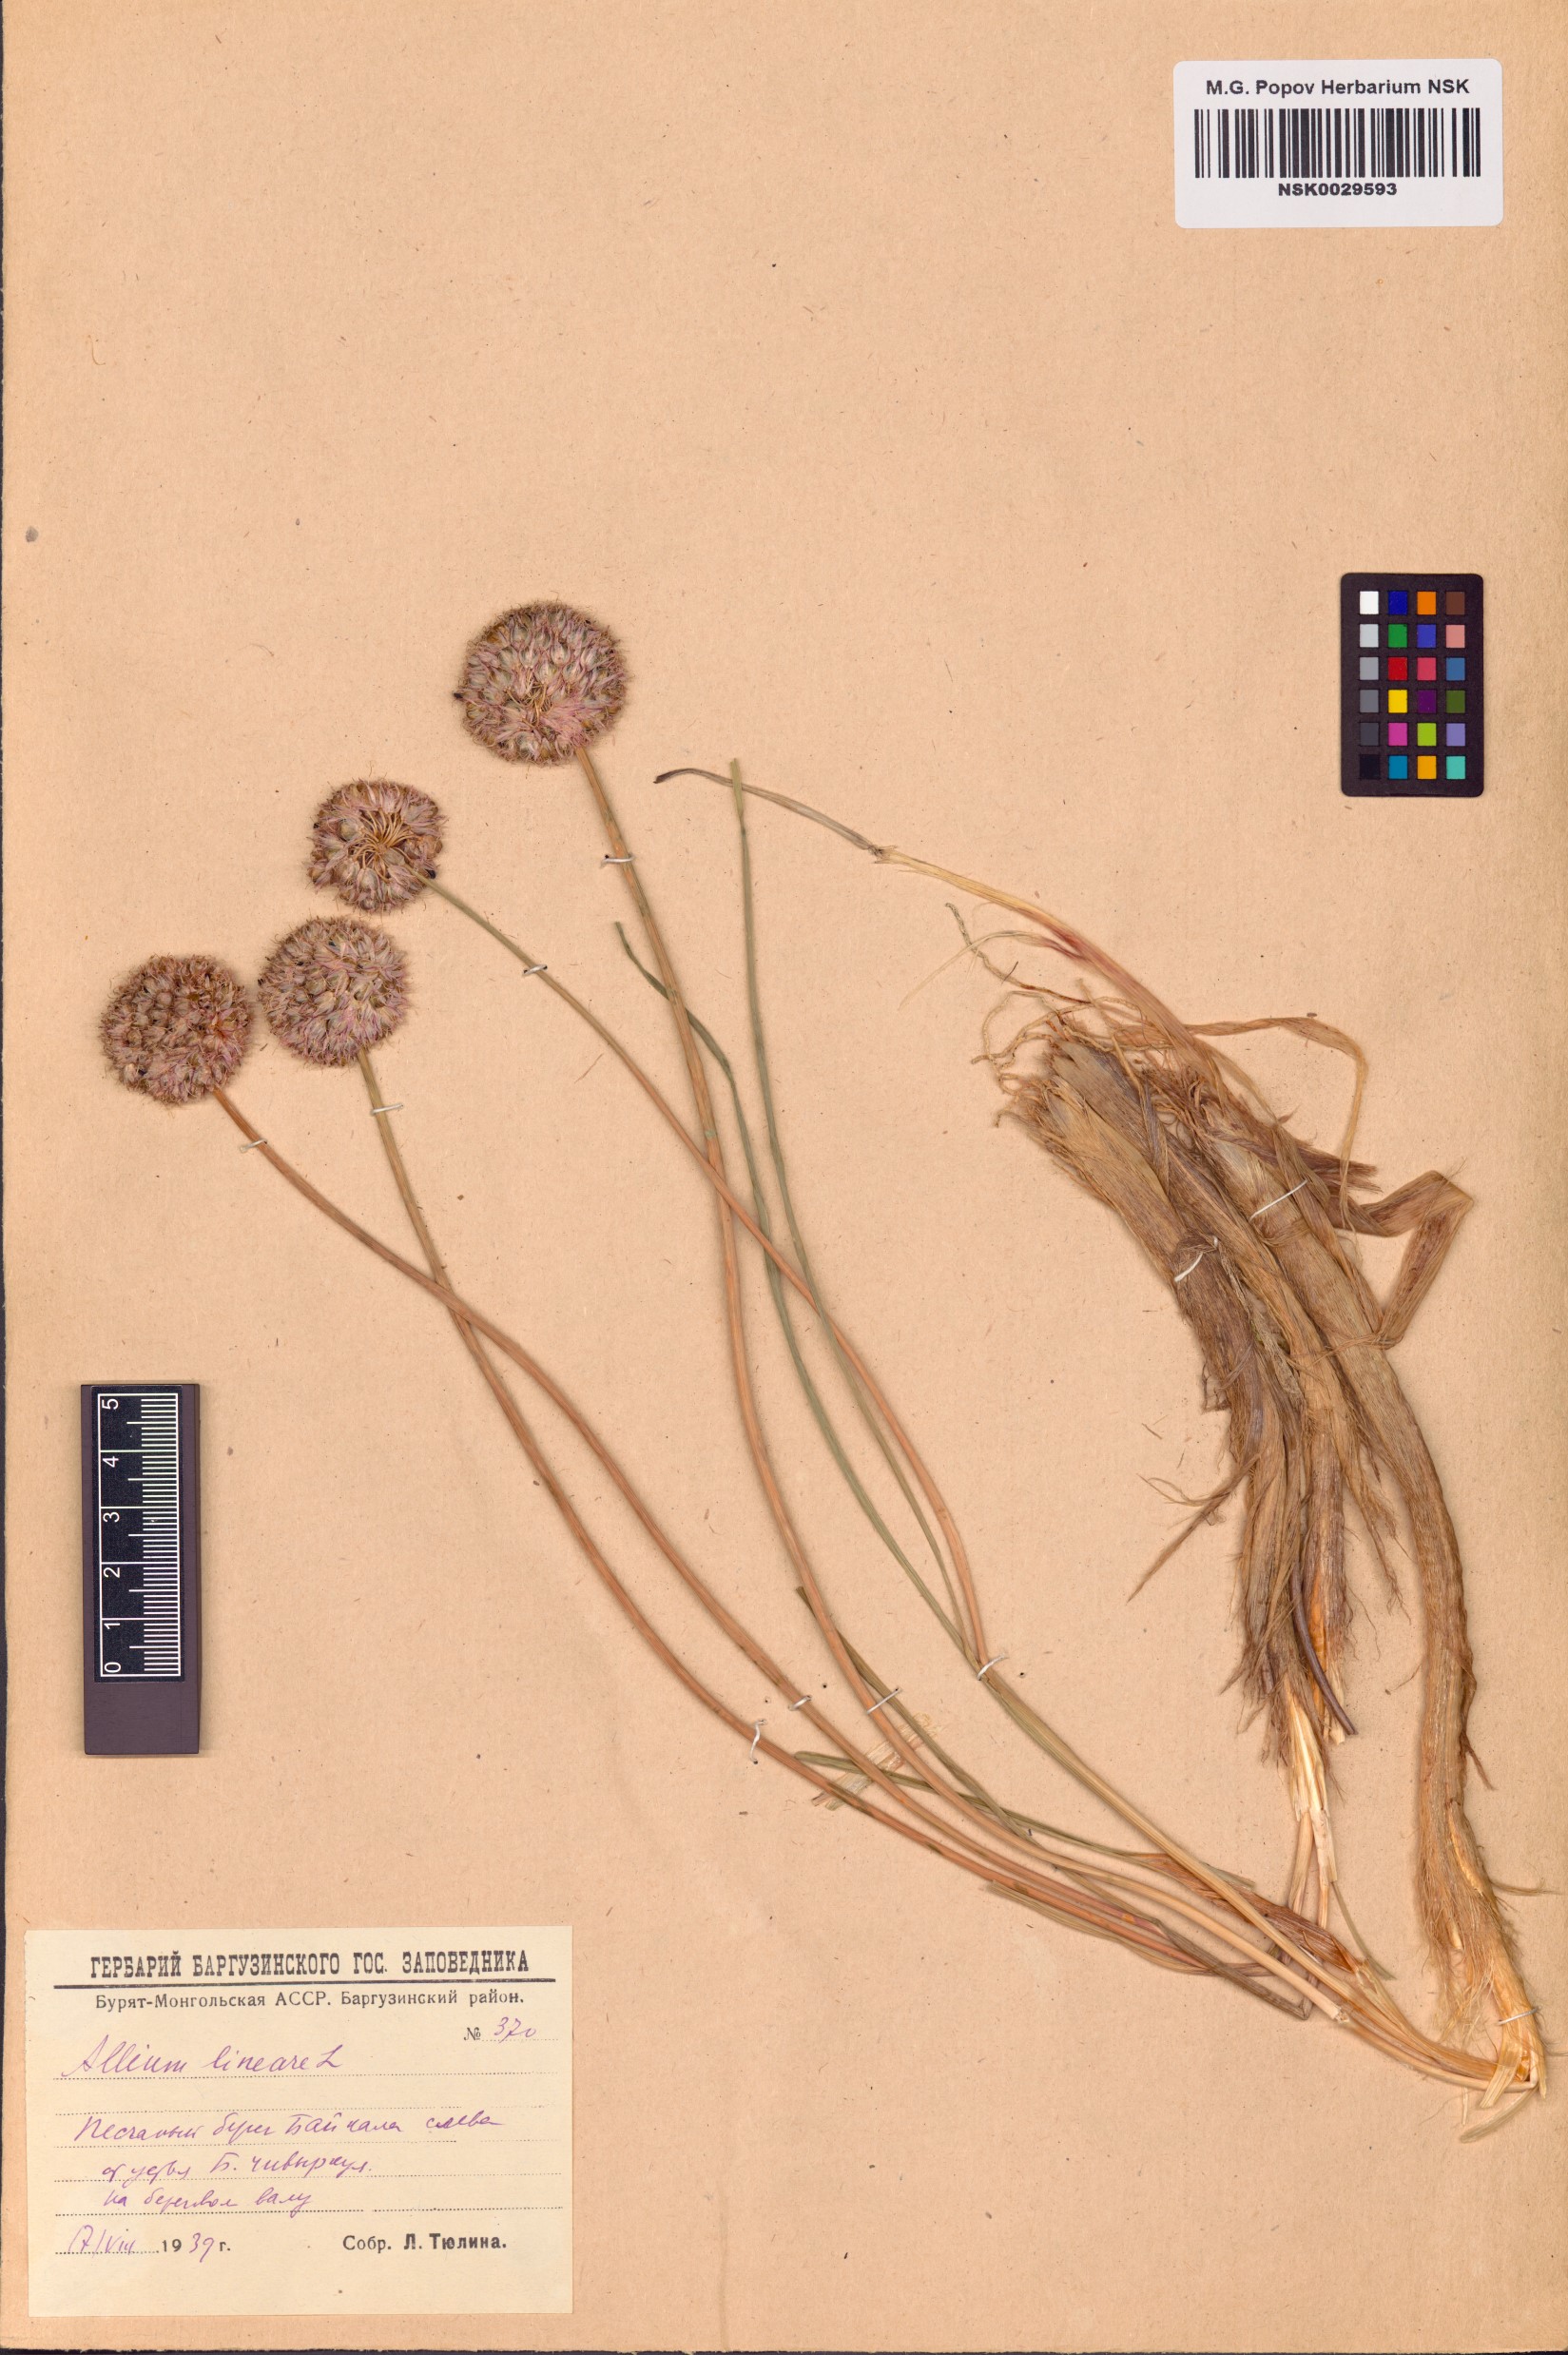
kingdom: Plantae
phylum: Tracheophyta
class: Liliopsida
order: Asparagales
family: Amaryllidaceae
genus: Allium
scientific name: Allium lineare
